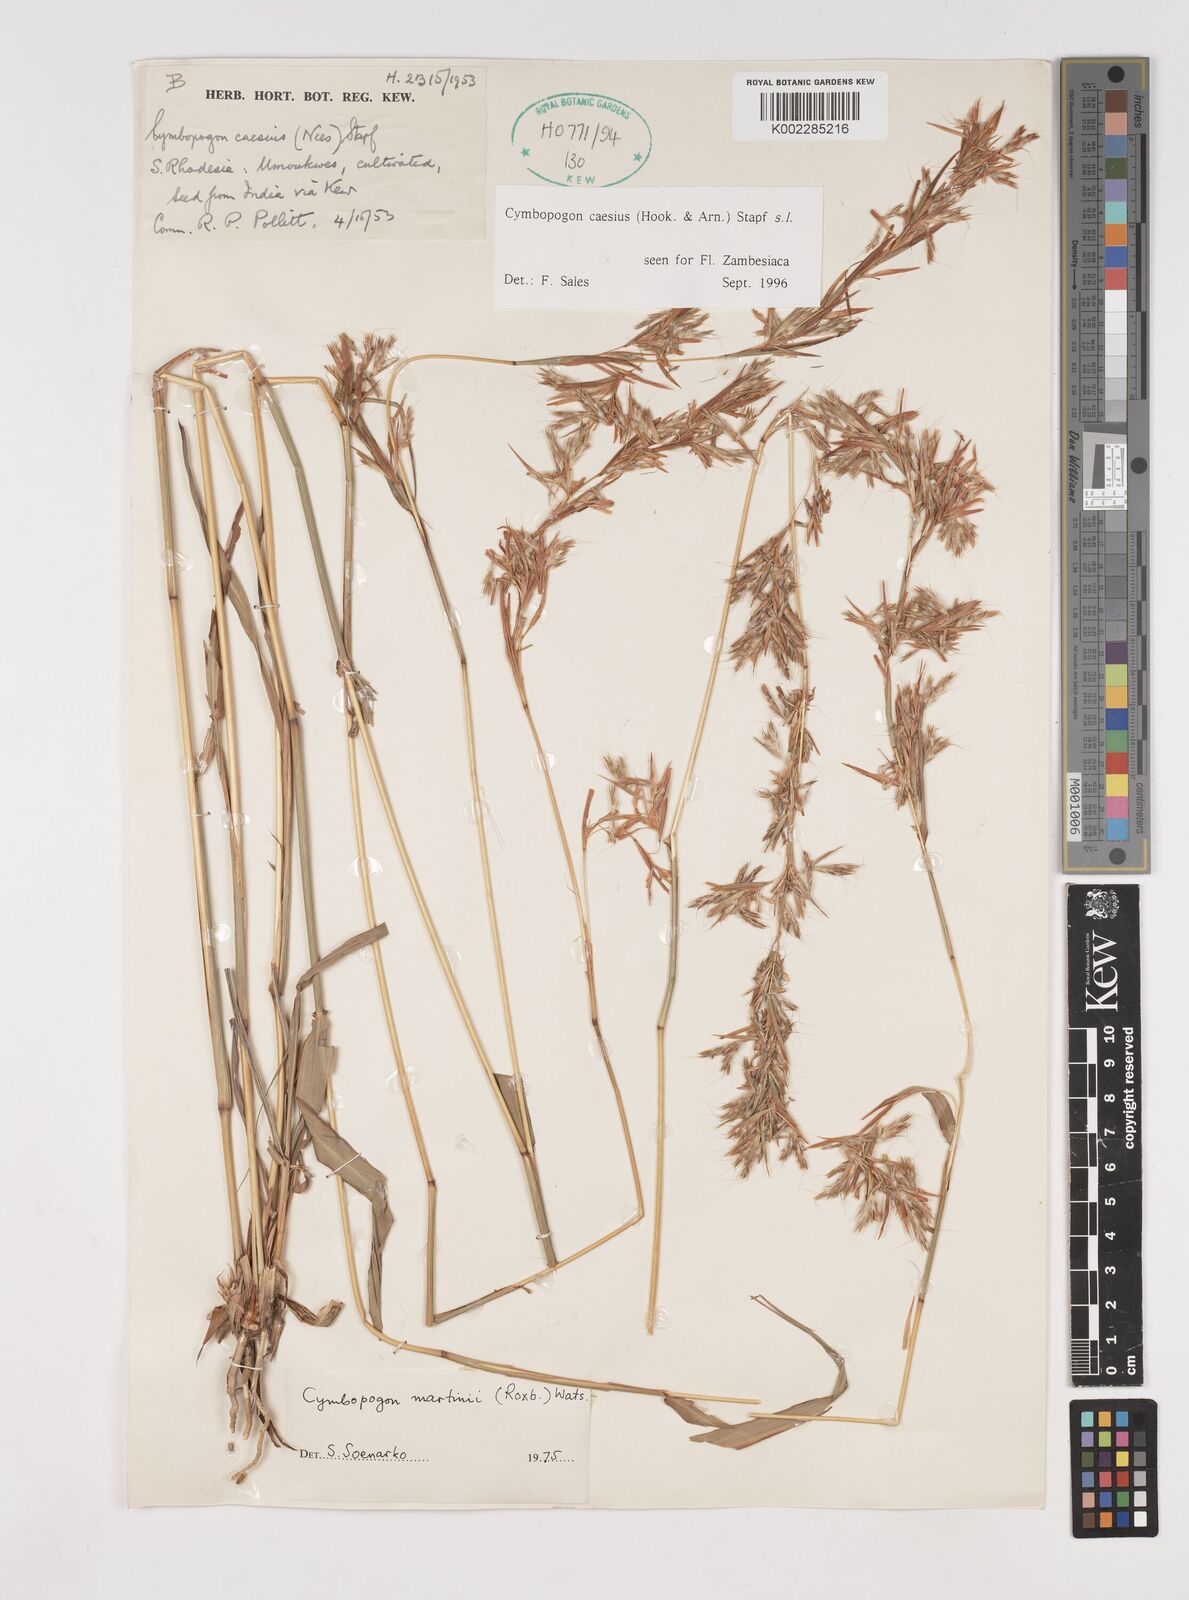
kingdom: Plantae
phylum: Tracheophyta
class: Liliopsida
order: Poales
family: Poaceae
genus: Cymbopogon
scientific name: Cymbopogon caesius
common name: Kachi grass
